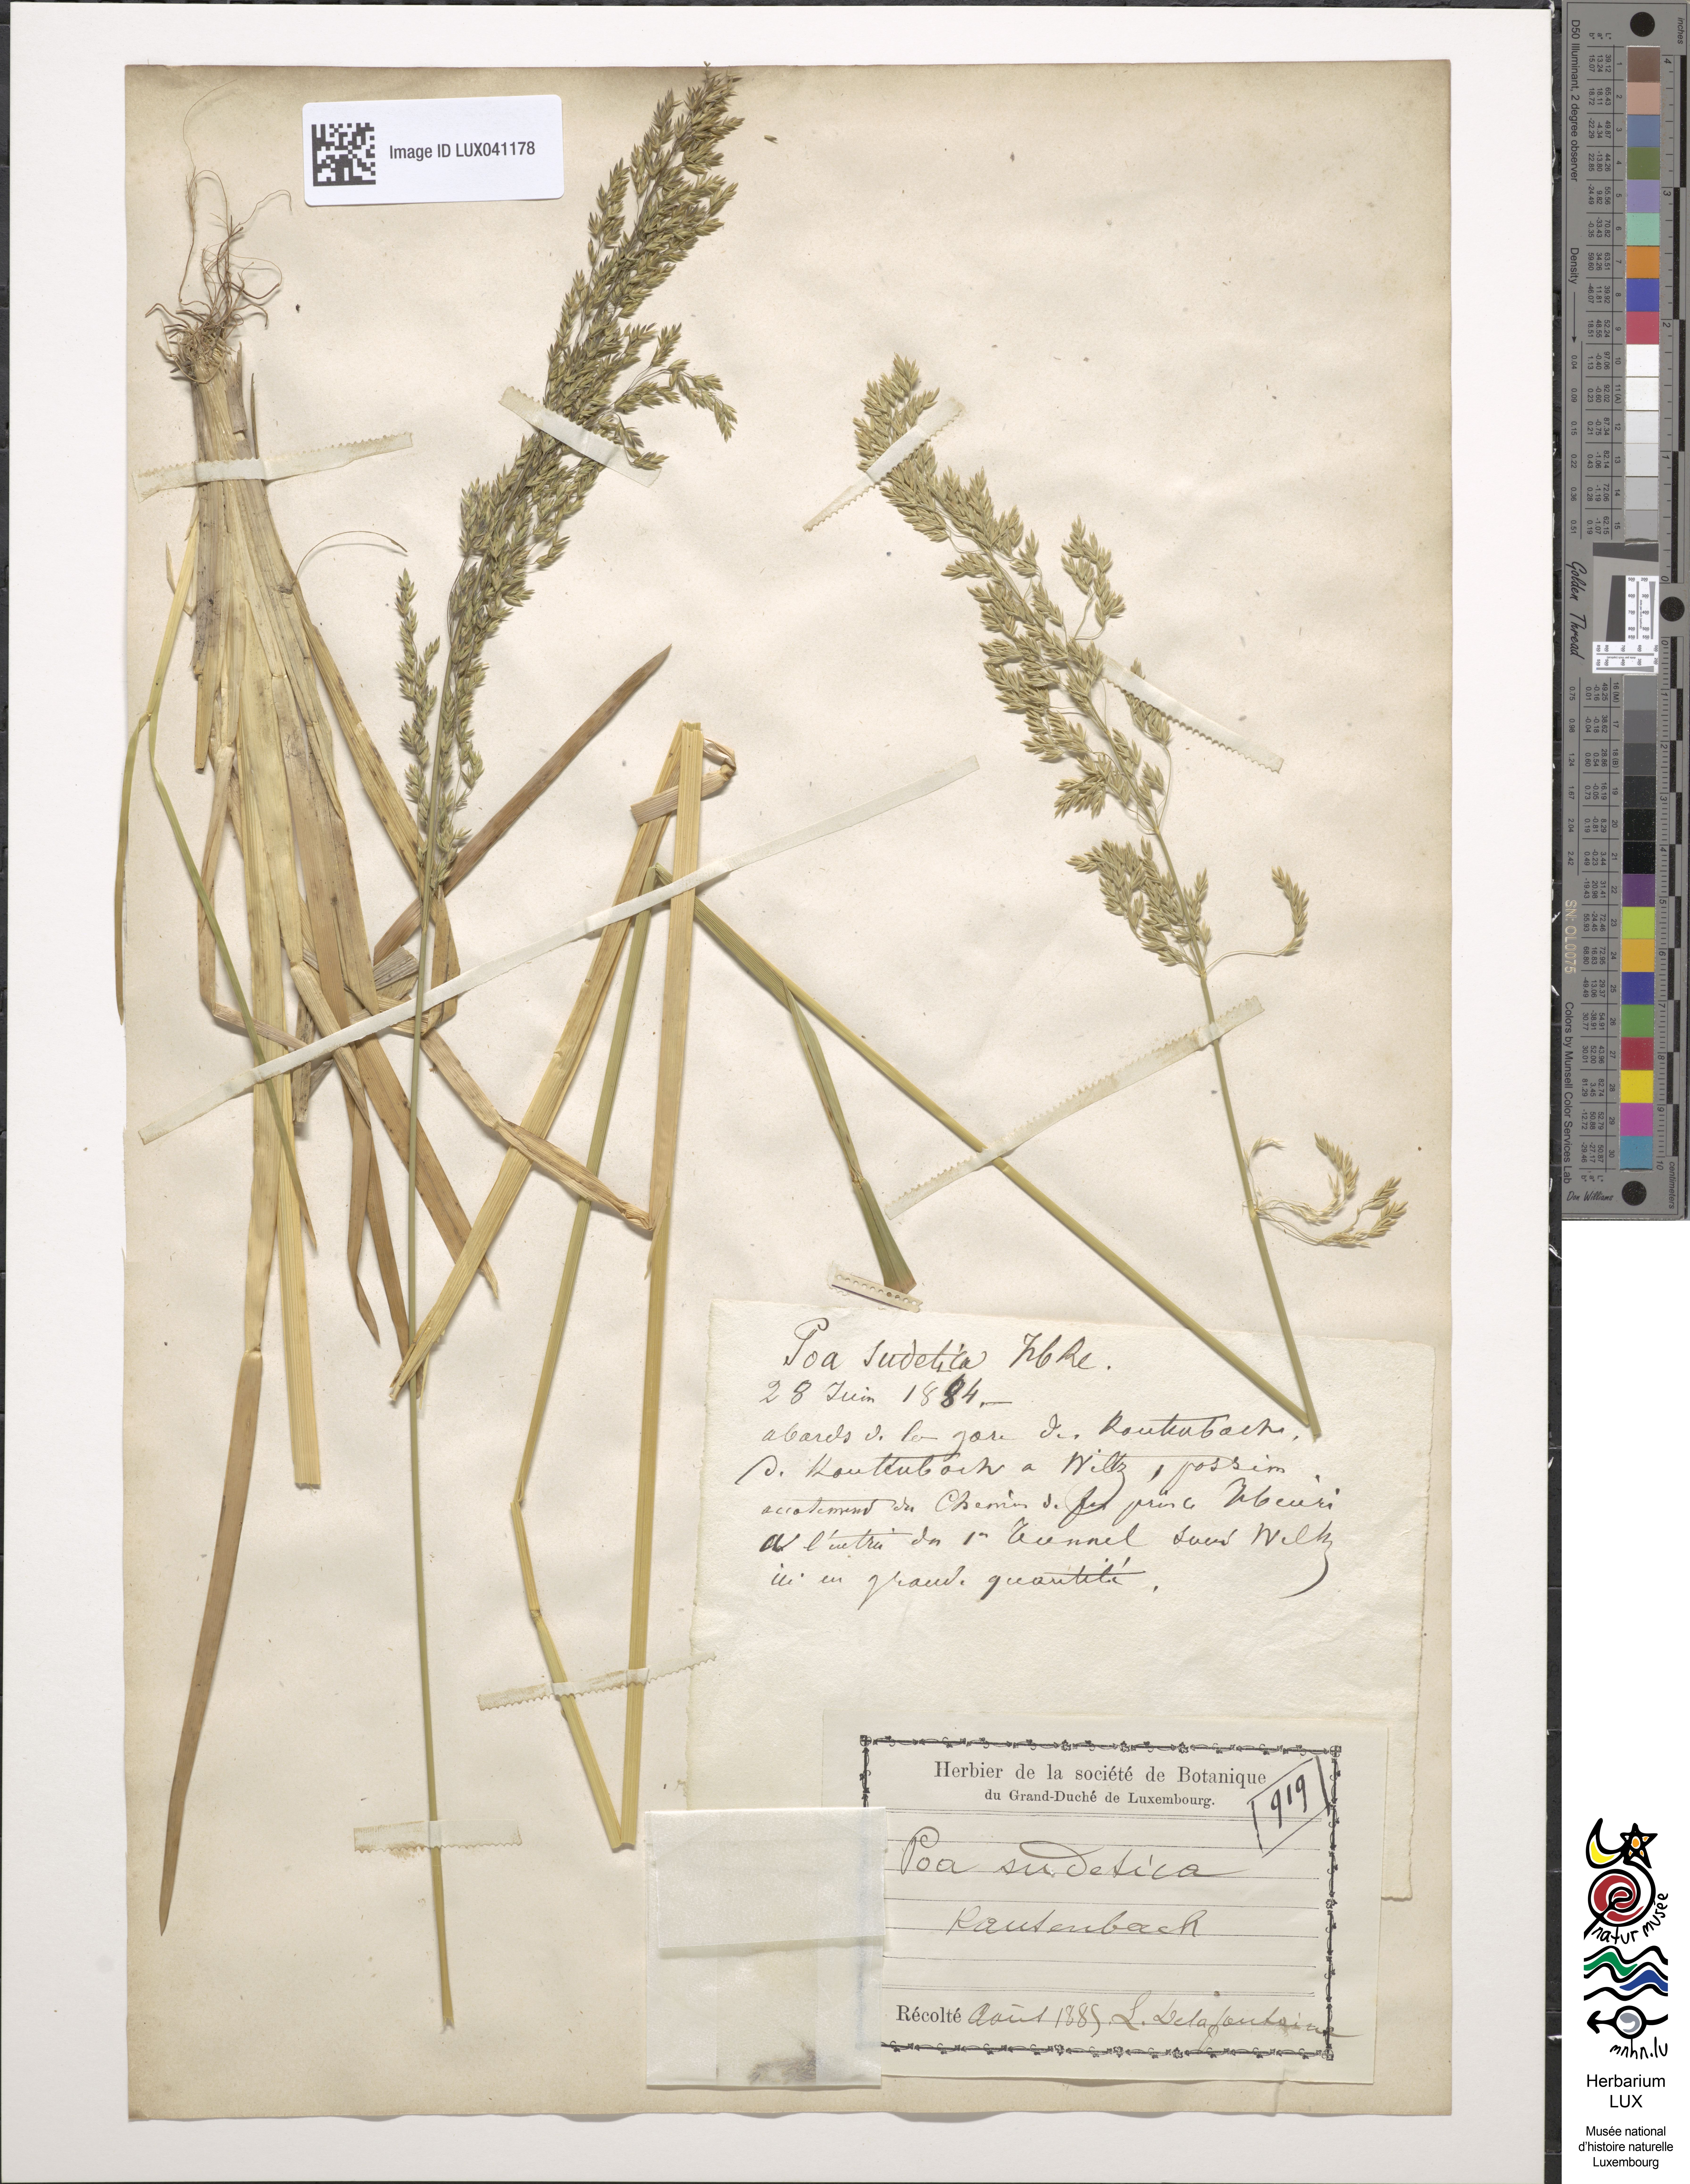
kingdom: Plantae
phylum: Tracheophyta
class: Liliopsida
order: Poales
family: Poaceae
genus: Poa
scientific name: Poa chaixii
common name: Broad-leaved meadow-grass
